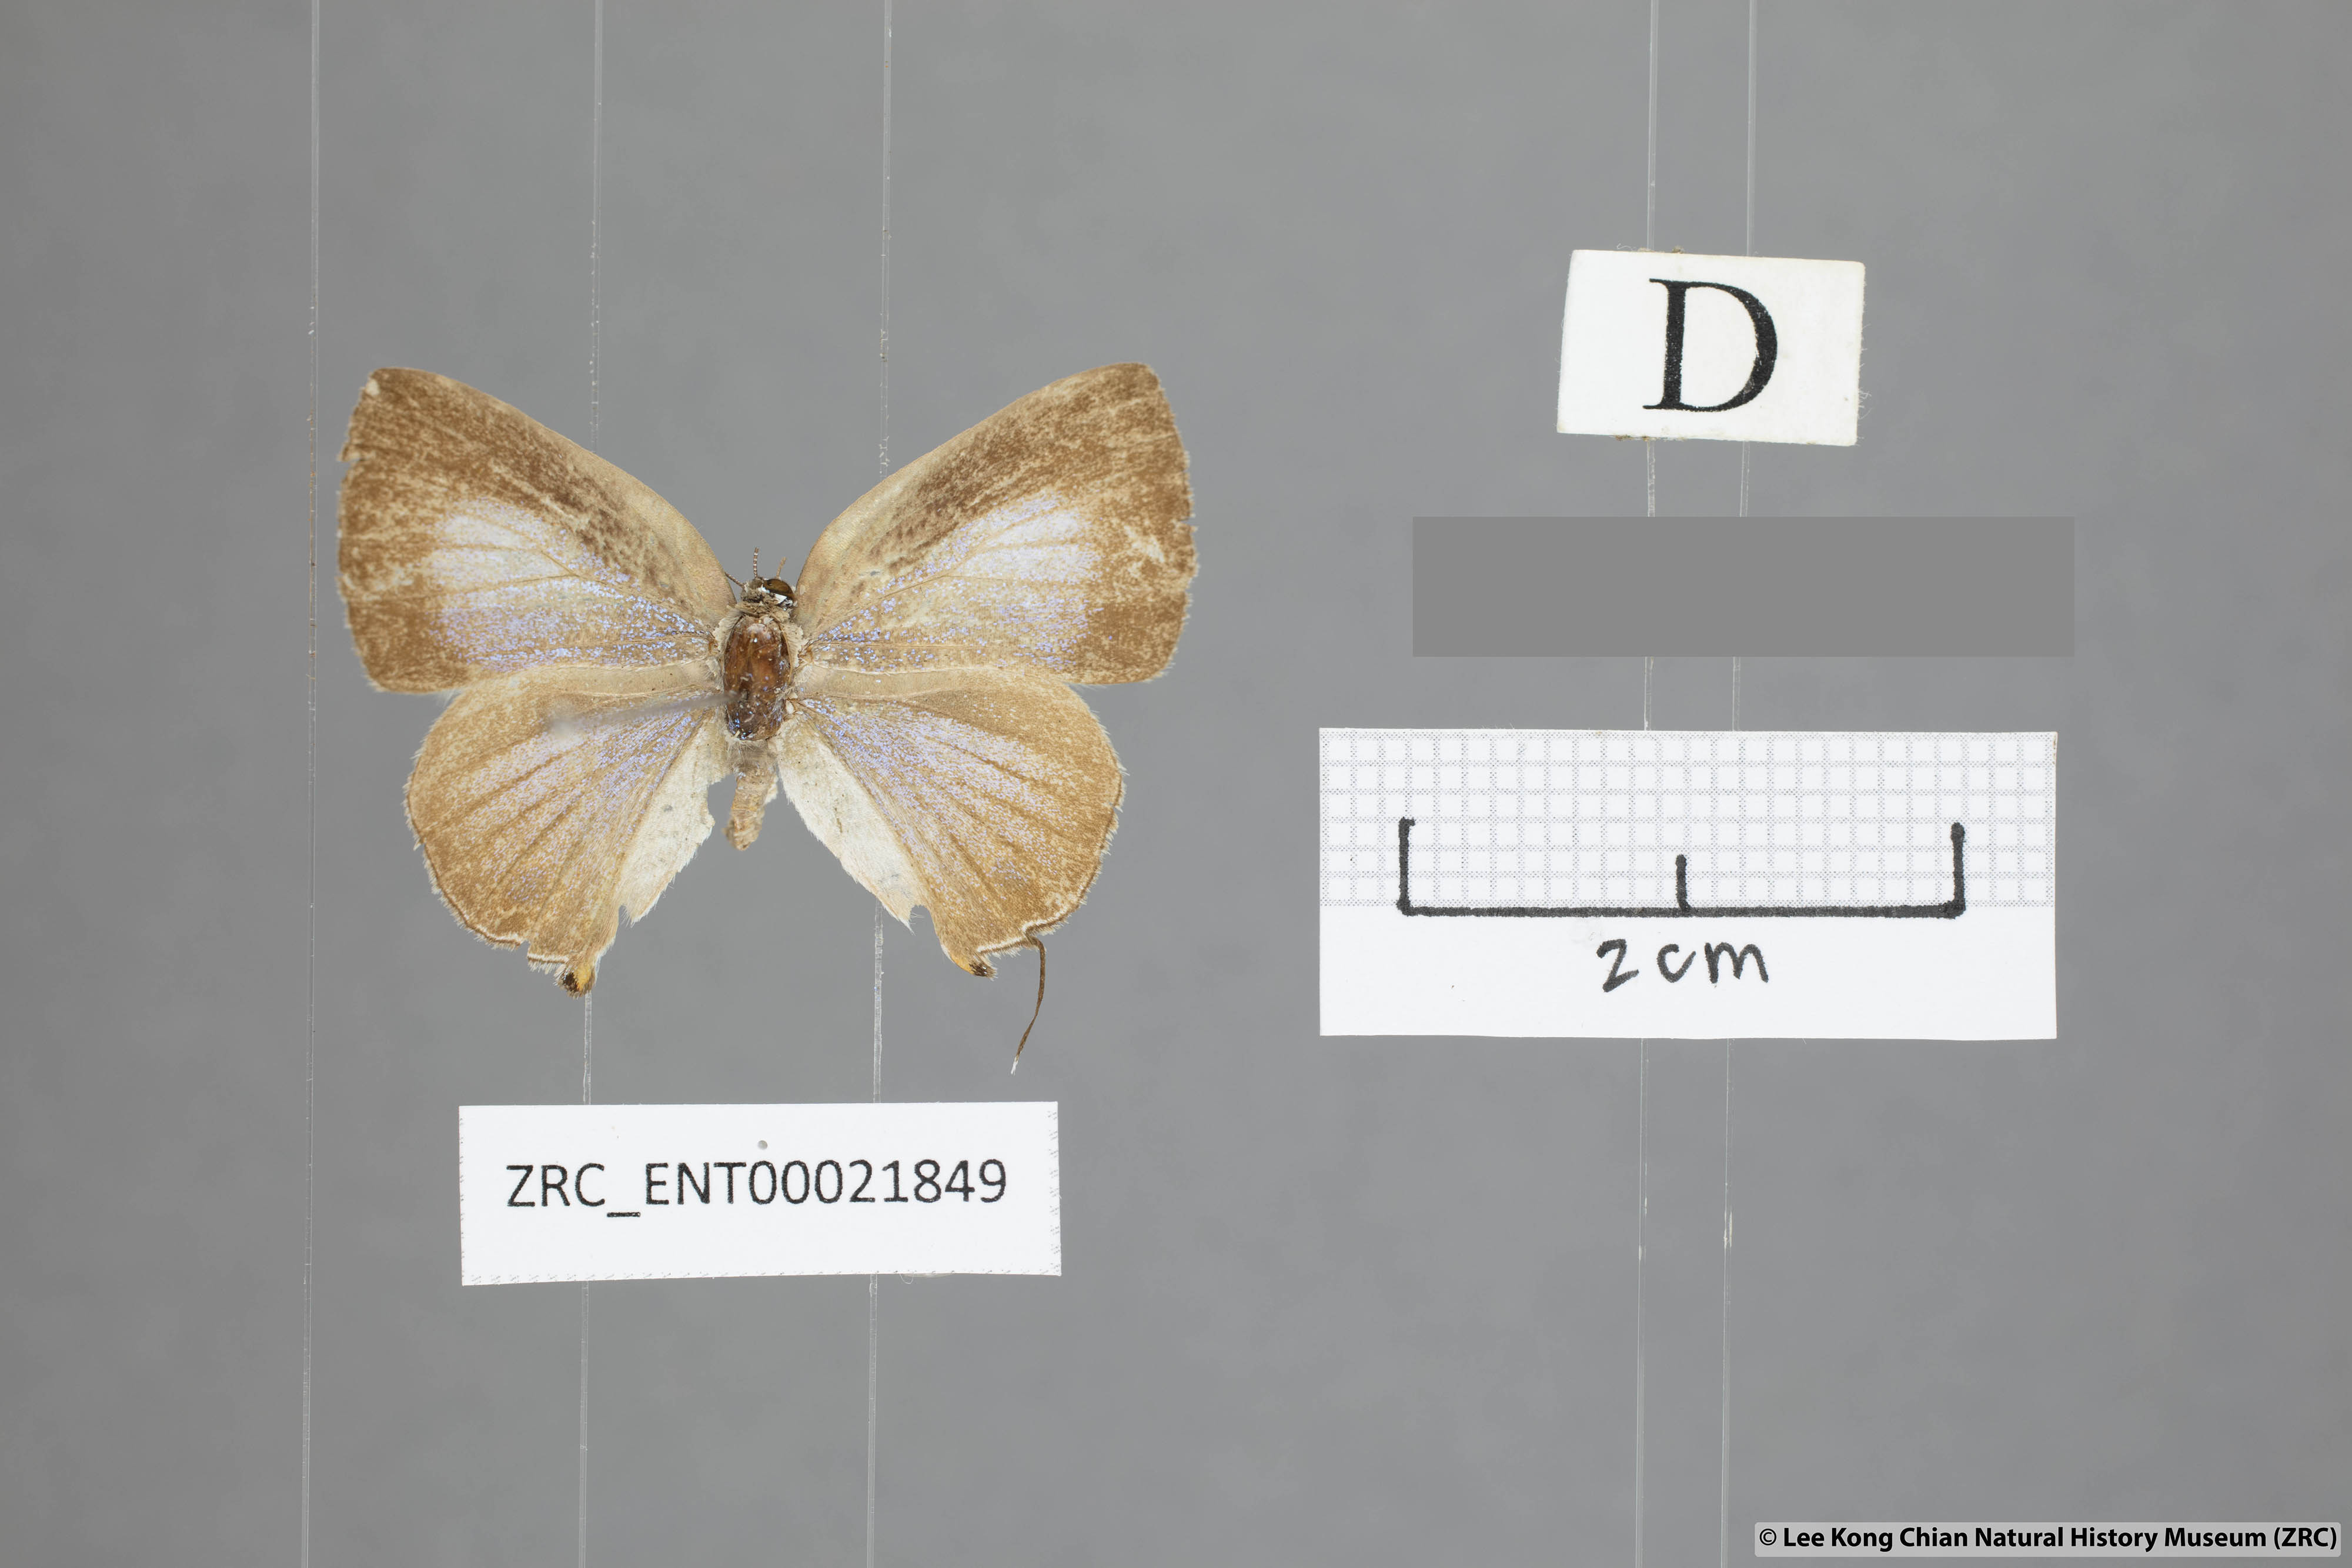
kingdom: Animalia
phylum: Arthropoda
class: Insecta
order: Lepidoptera
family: Lycaenidae
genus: Deudorix
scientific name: Deudorix kessuma
